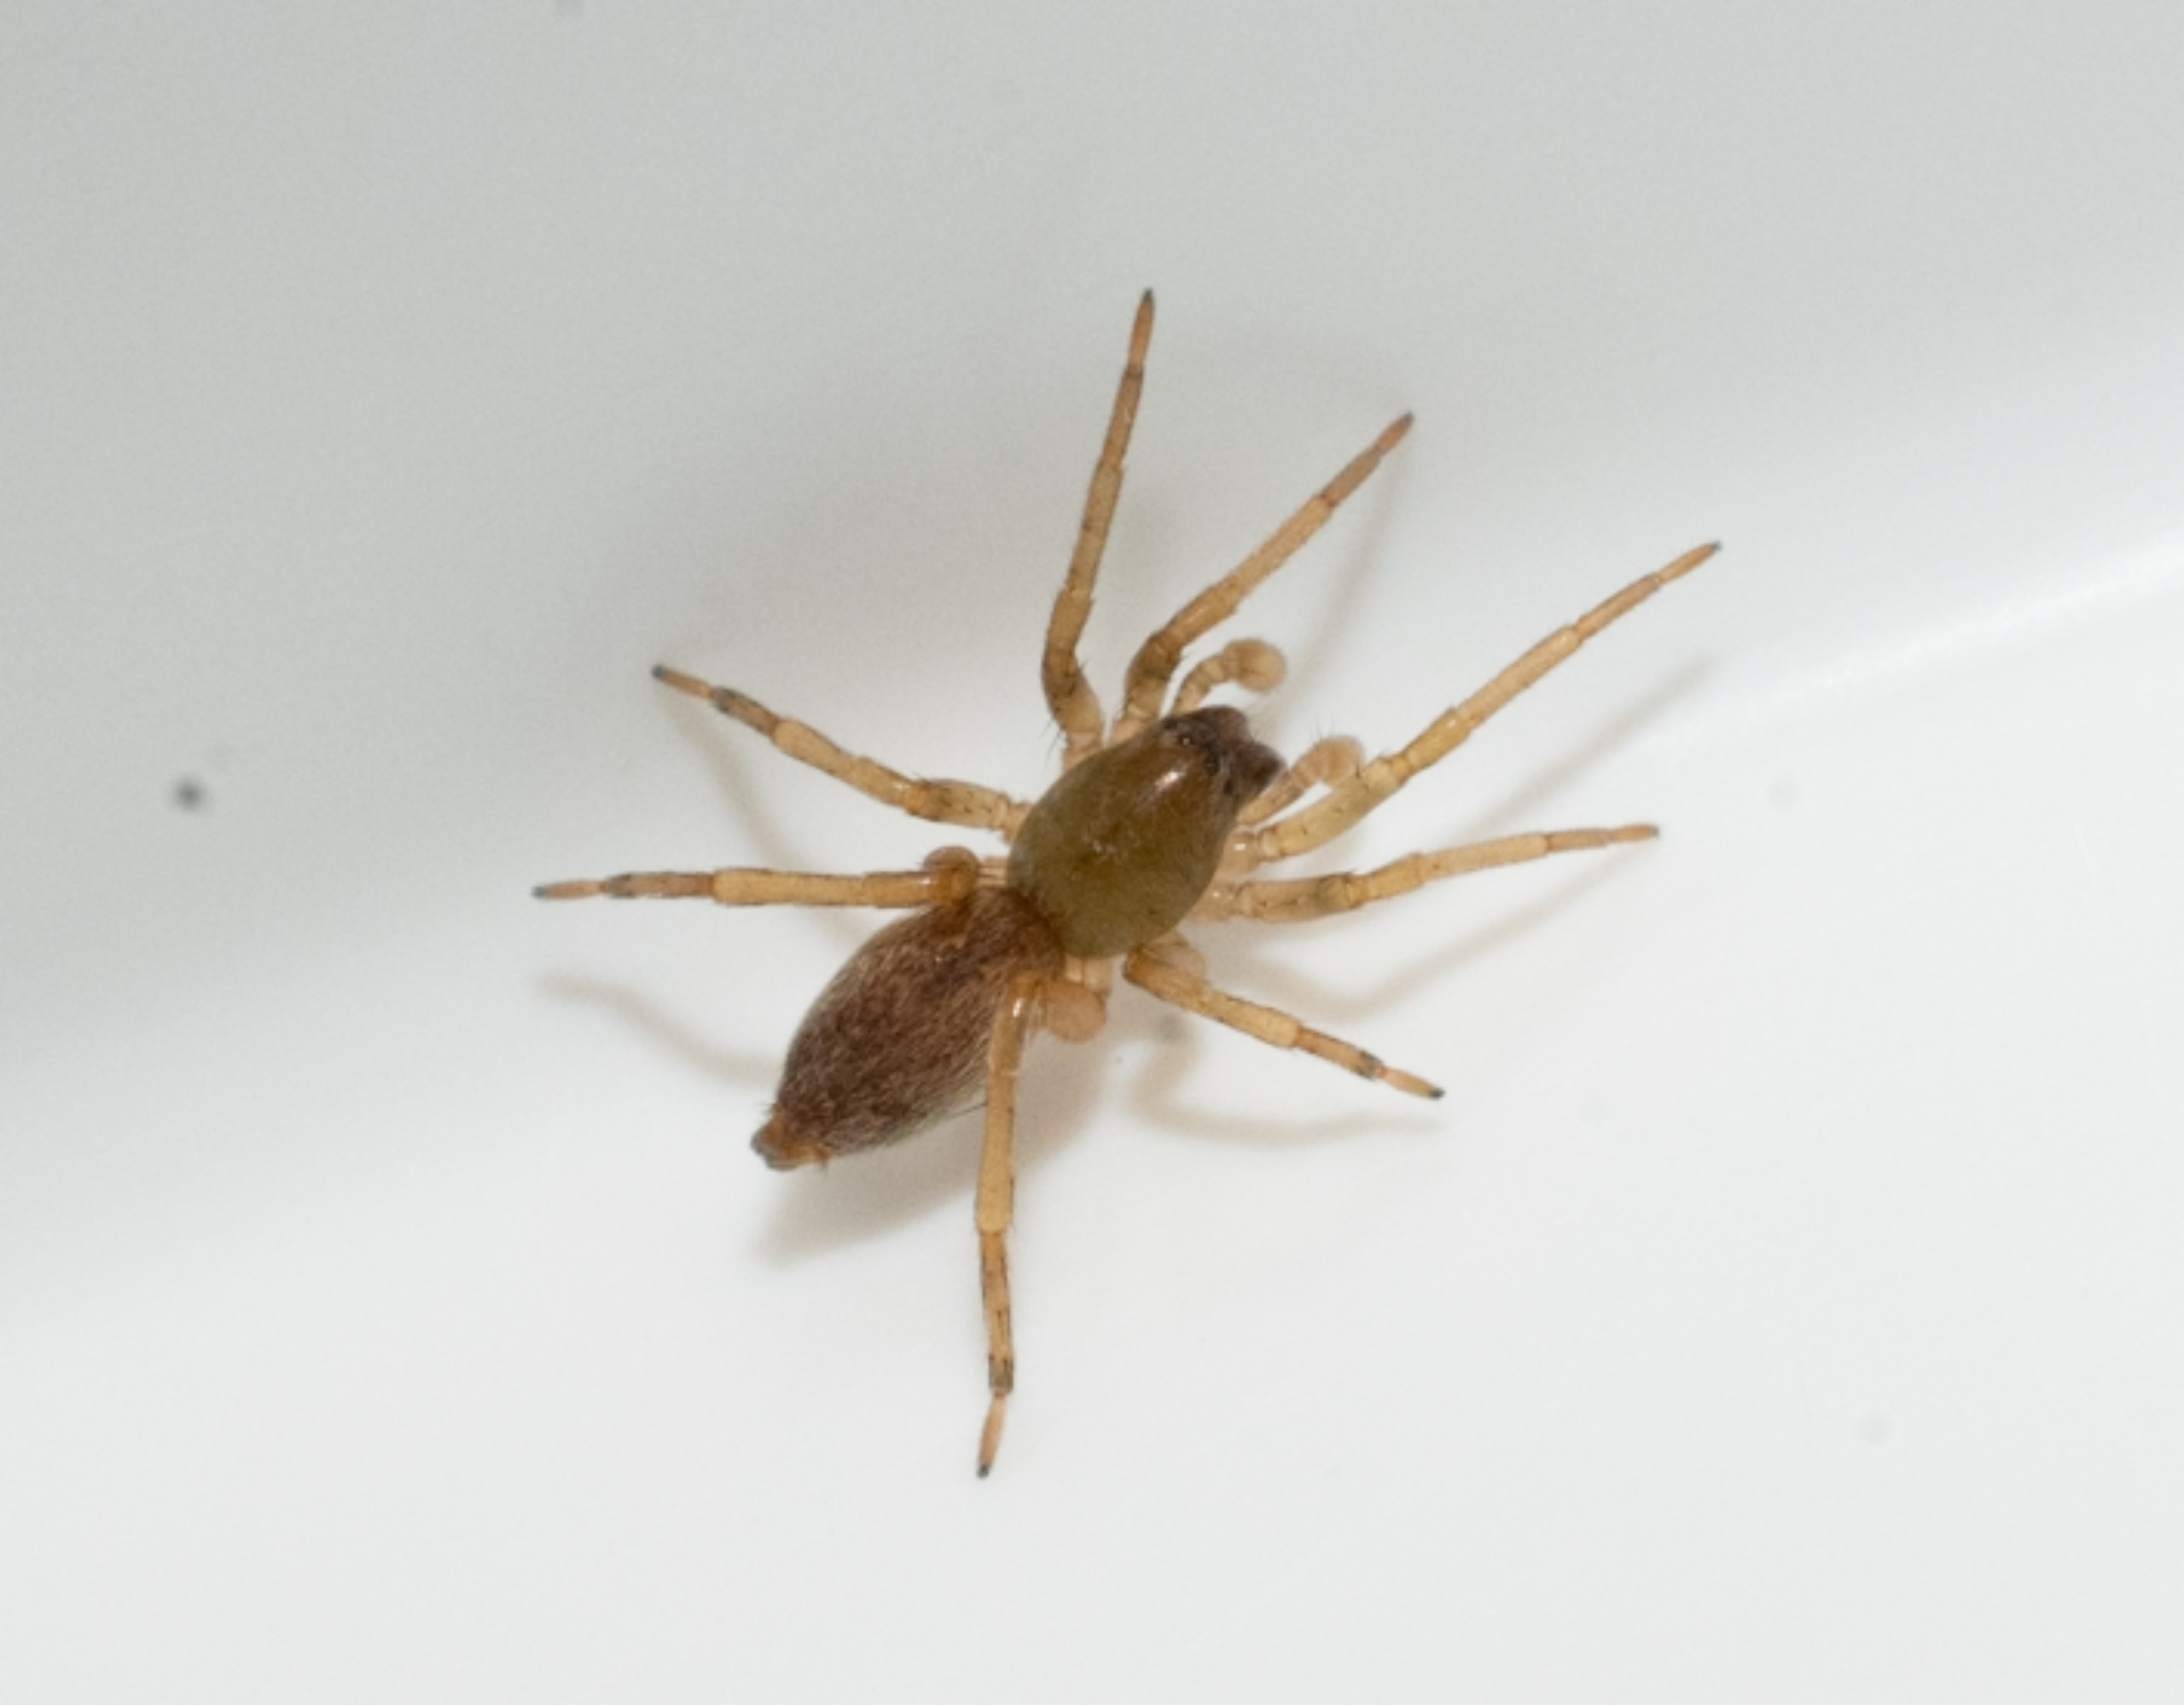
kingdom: Animalia
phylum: Arthropoda
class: Arachnida
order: Araneae
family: Clubionidae
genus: Clubiona
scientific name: Clubiona
